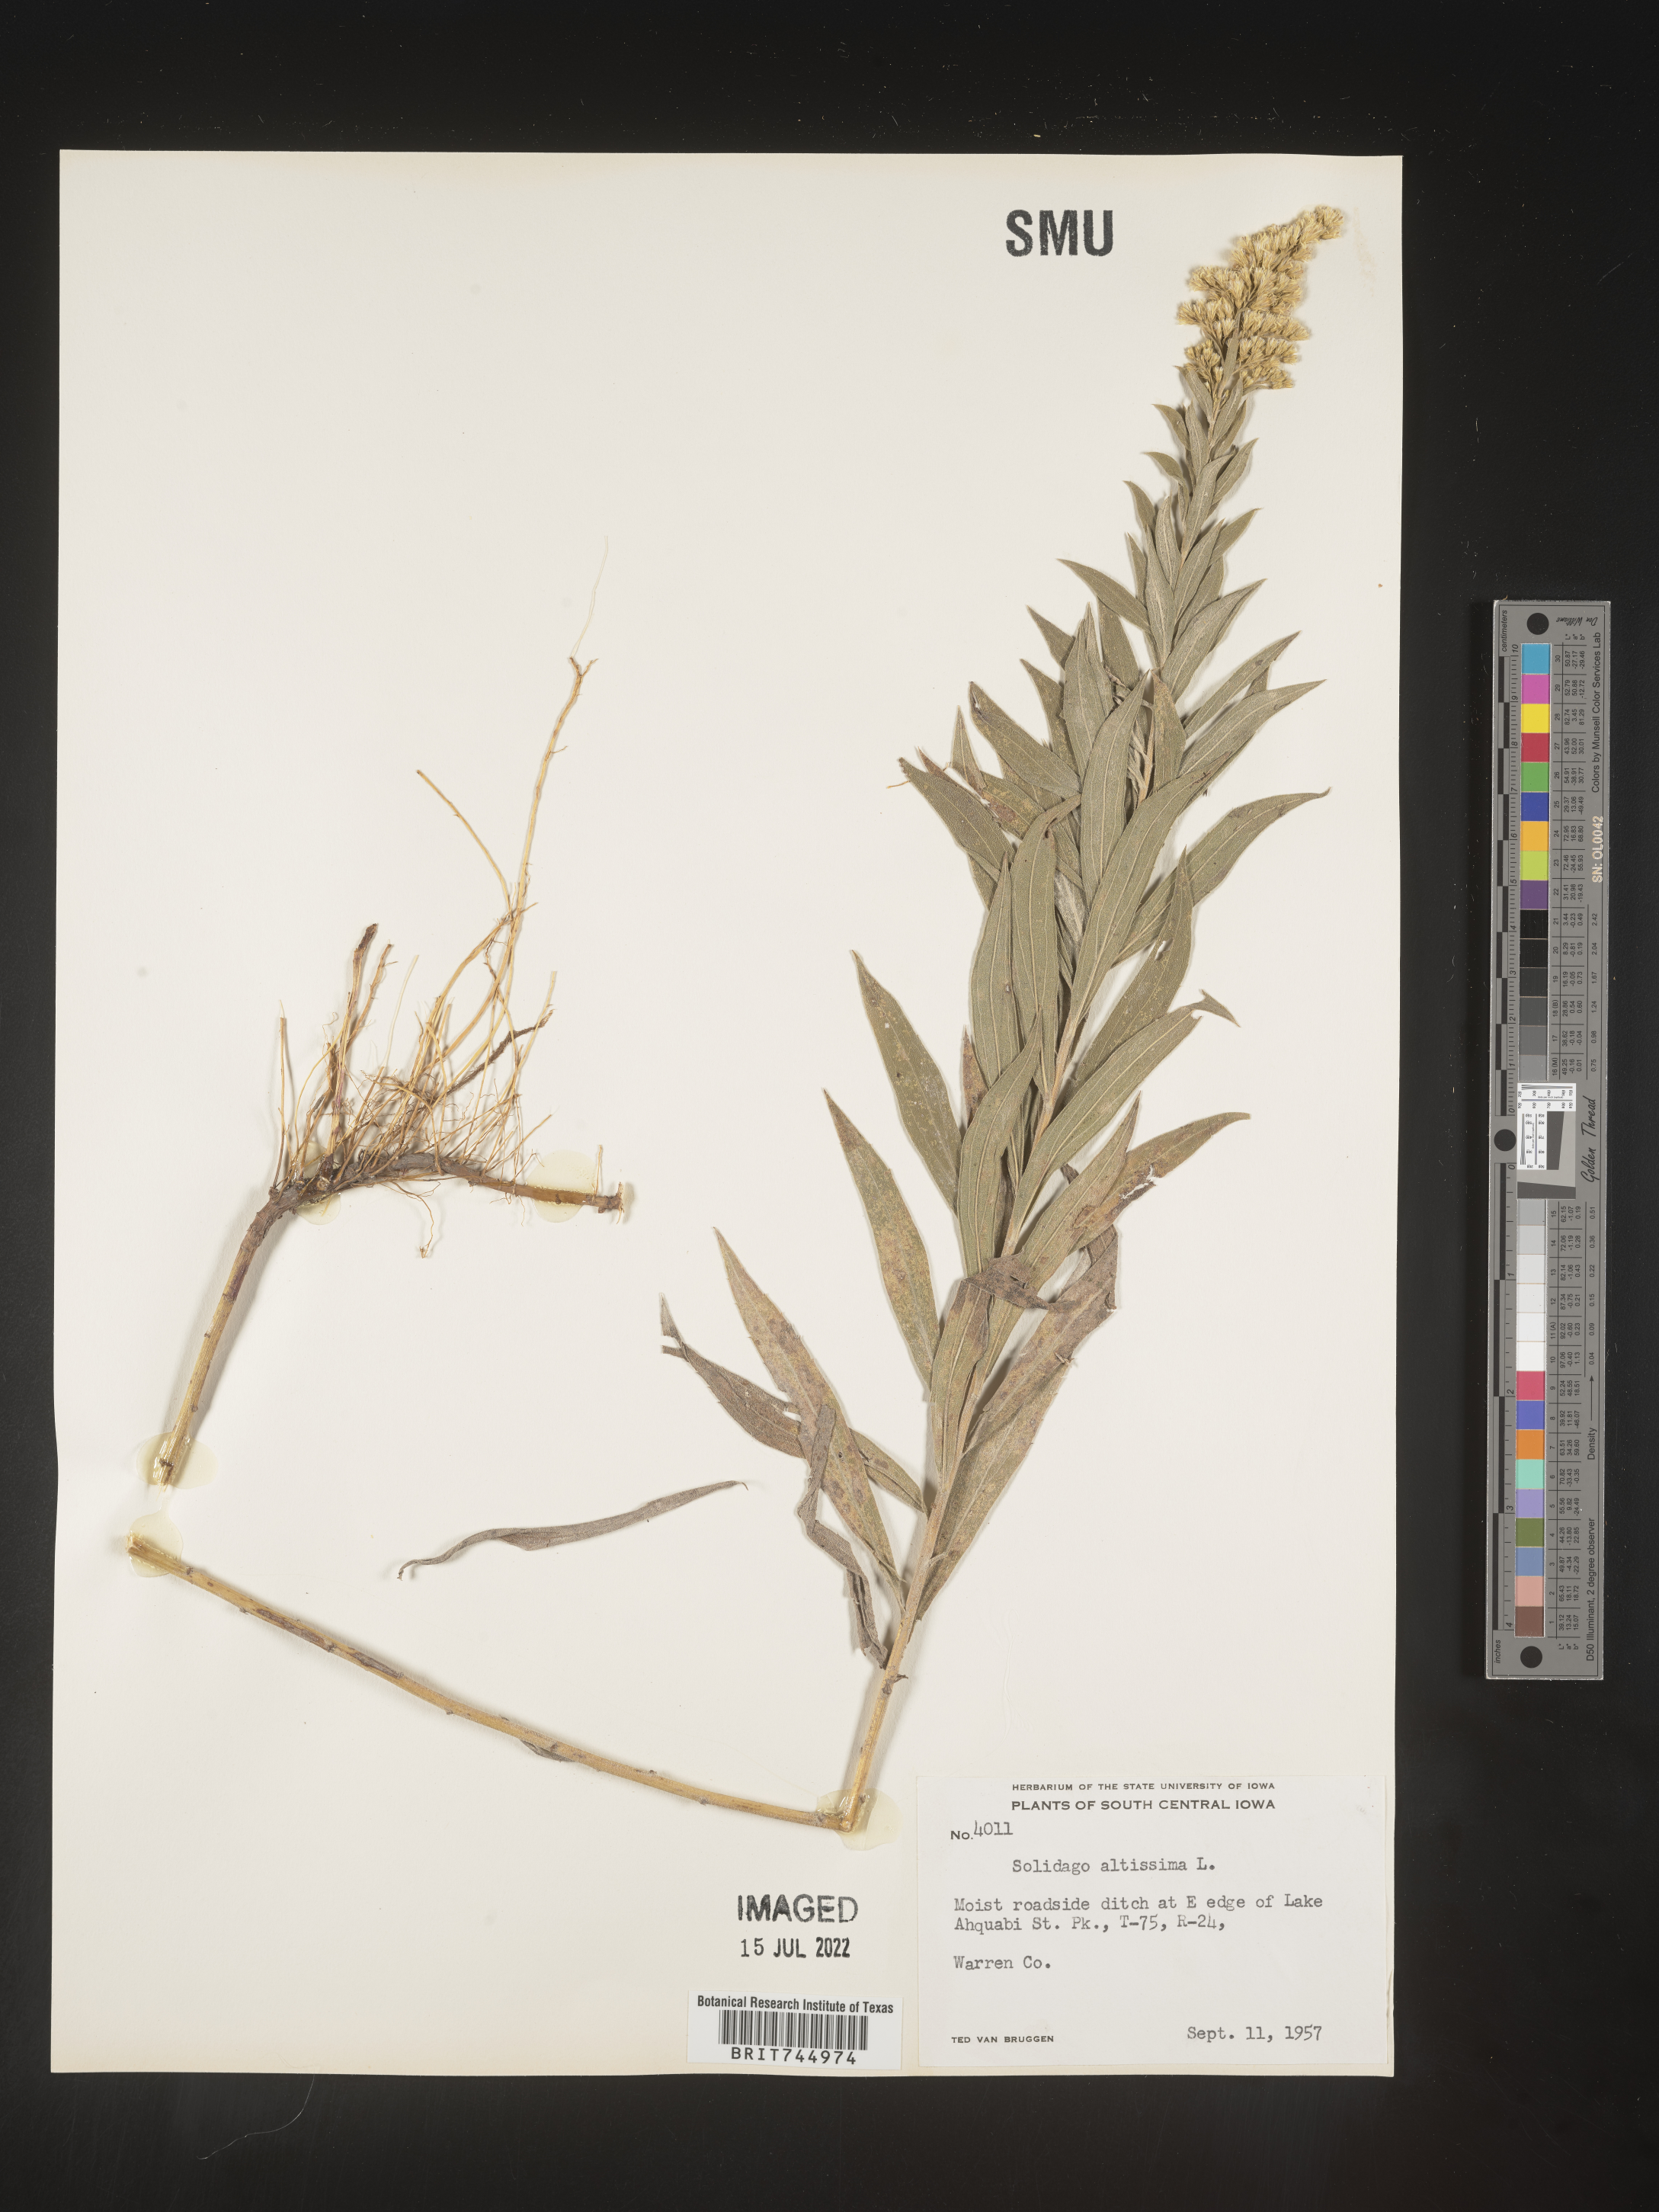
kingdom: Plantae
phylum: Tracheophyta
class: Magnoliopsida
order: Asterales
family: Asteraceae
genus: Solidago
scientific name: Solidago canadensis
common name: Canada goldenrod
